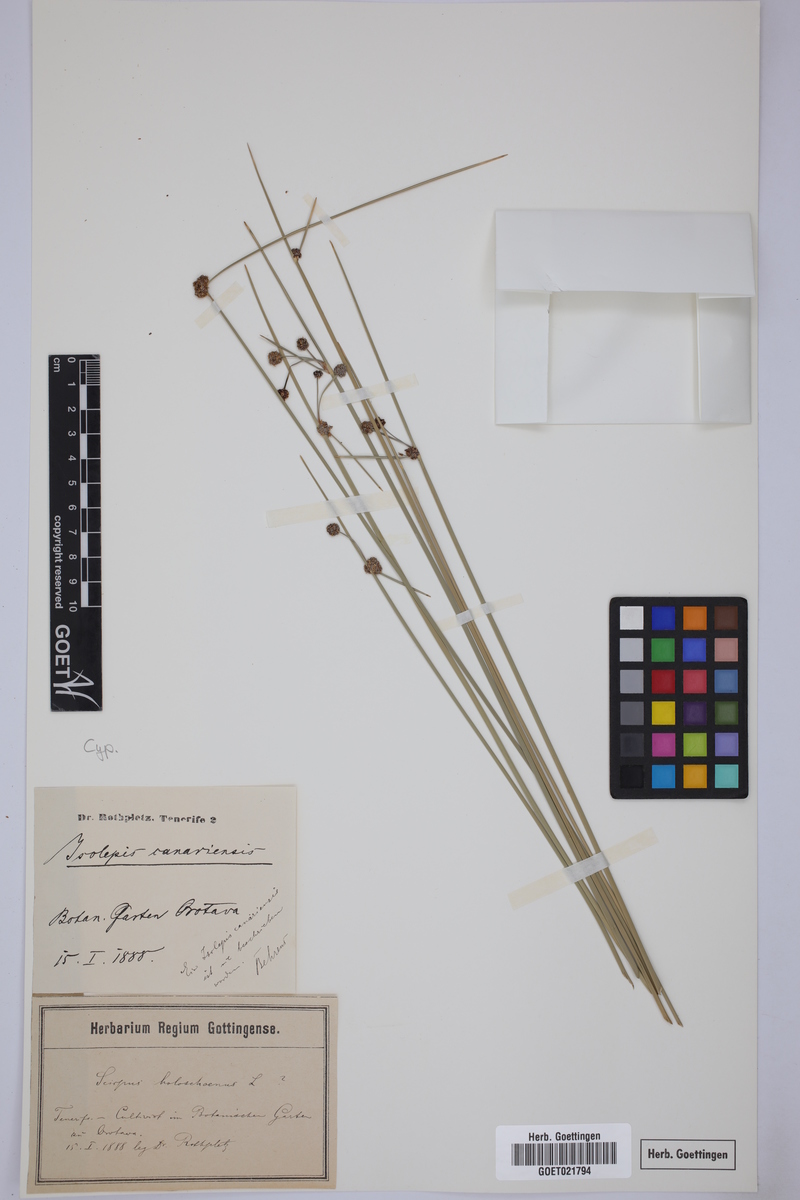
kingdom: Plantae
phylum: Tracheophyta
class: Liliopsida
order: Poales
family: Cyperaceae
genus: Scirpoides
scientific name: Scirpoides holoschoenus
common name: Round-headed club-rush
